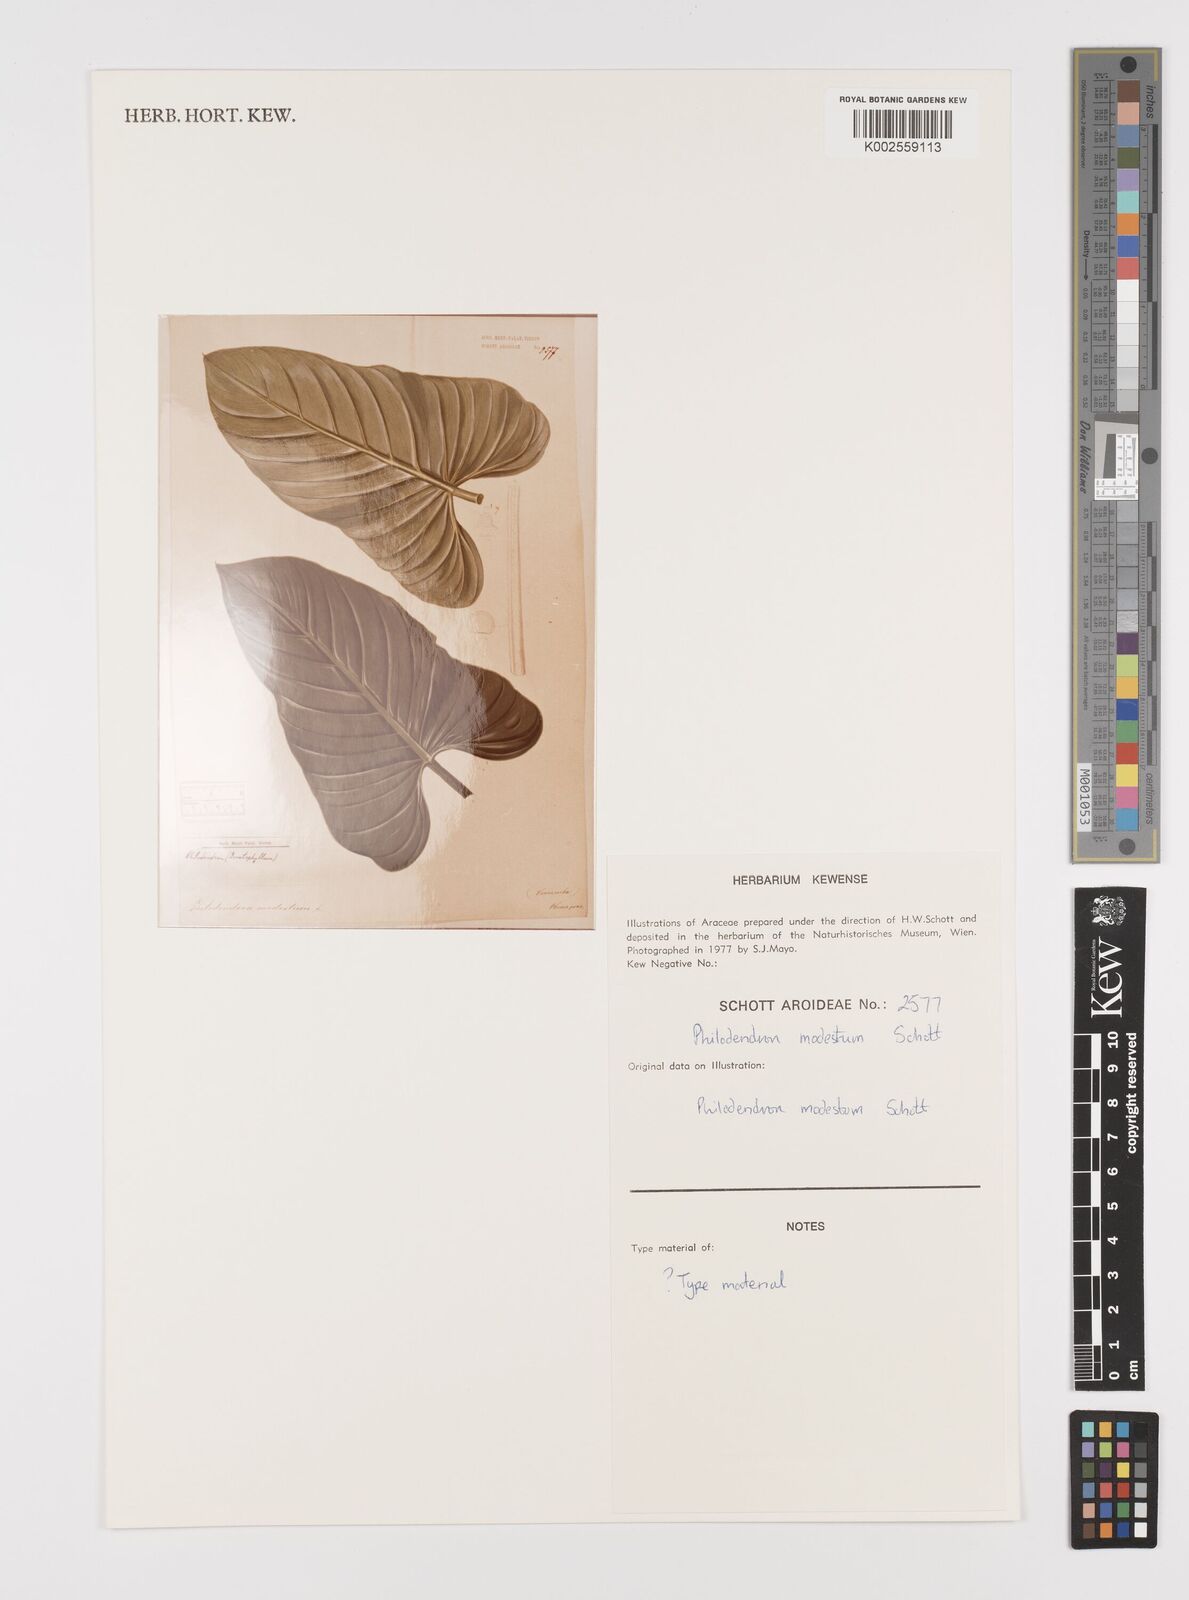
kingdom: Plantae
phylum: Tracheophyta
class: Liliopsida
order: Alismatales
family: Araceae
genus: Philodendron
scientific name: Philodendron modestum
